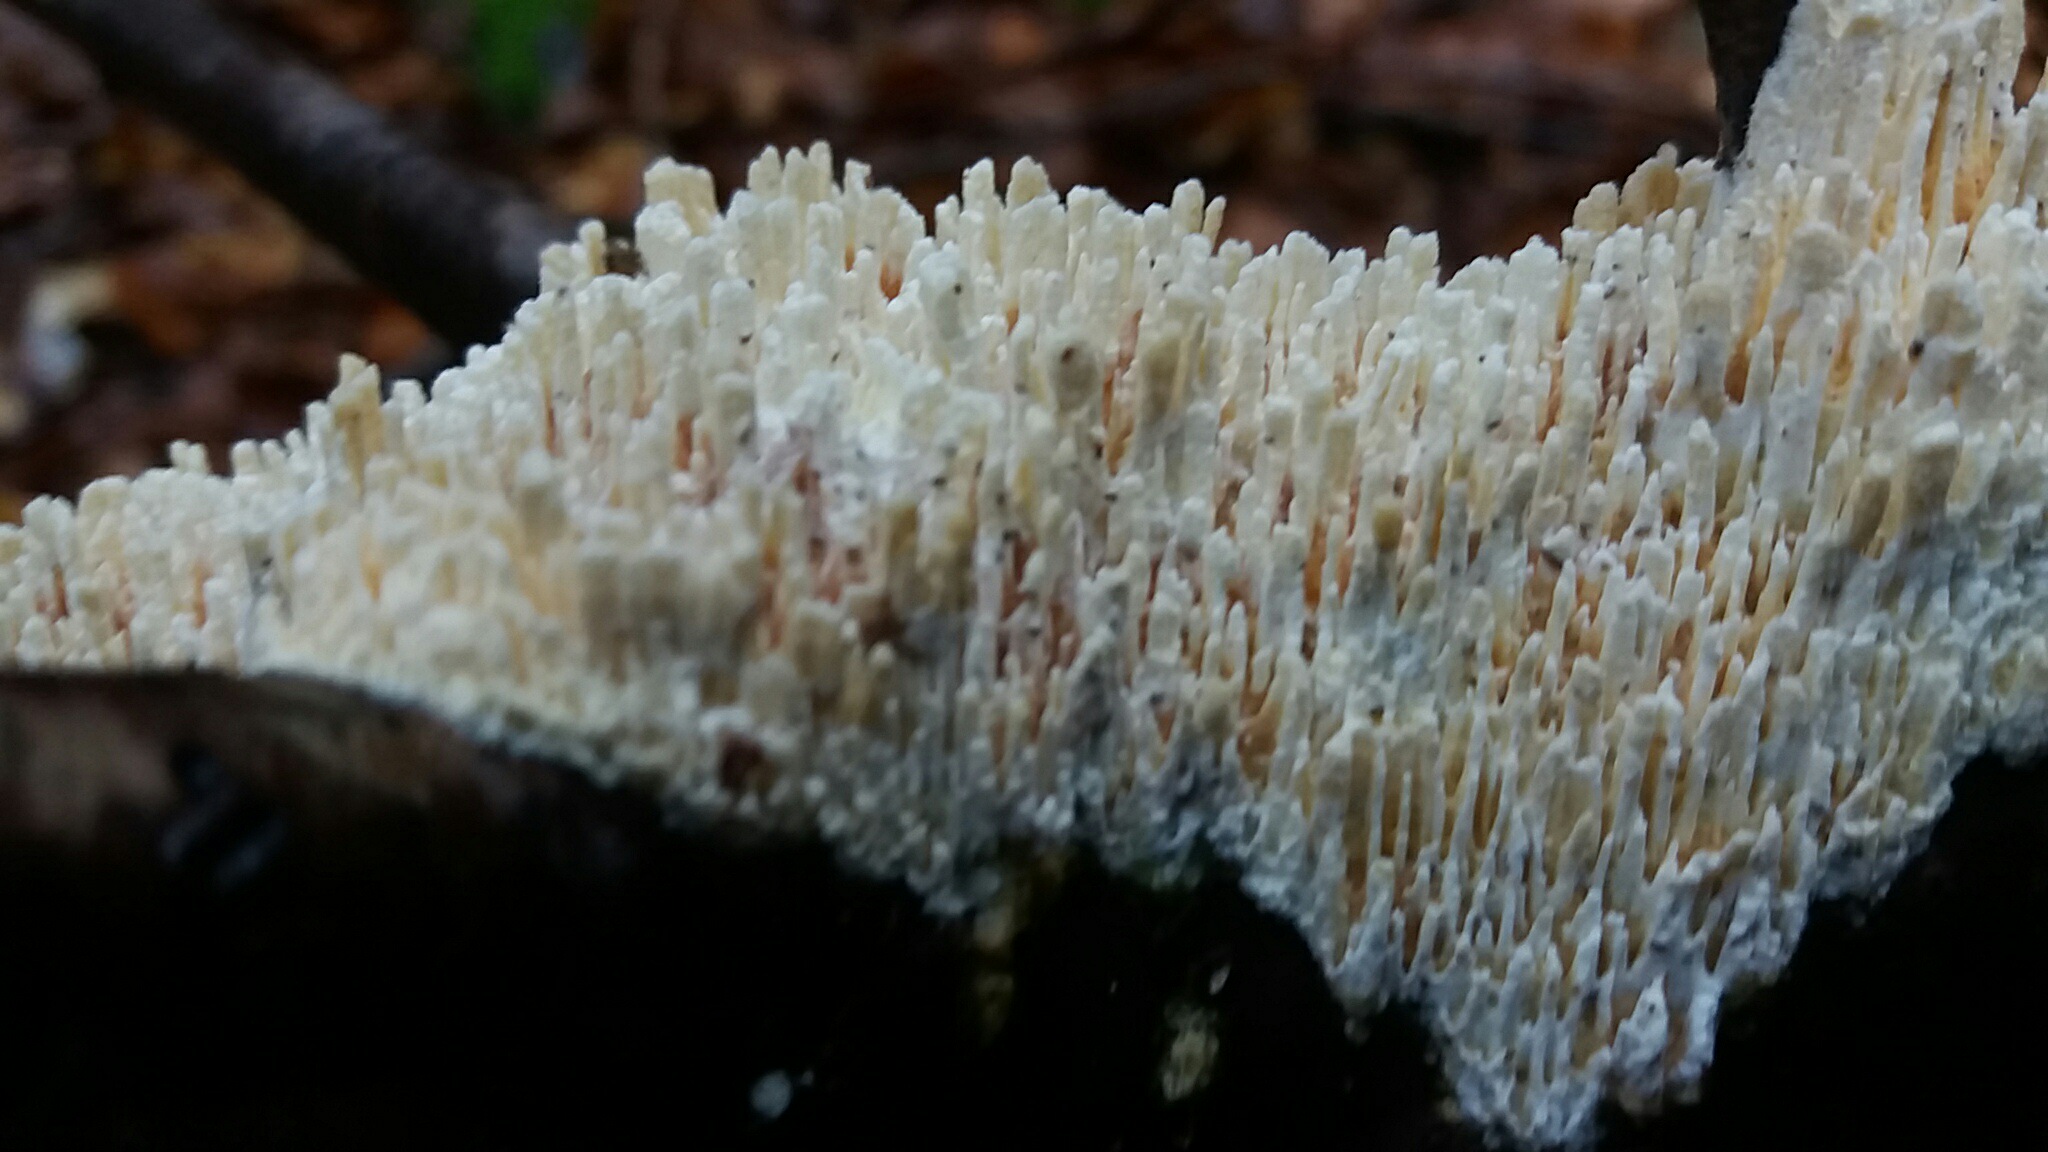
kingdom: Fungi
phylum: Basidiomycota
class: Agaricomycetes
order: Hymenochaetales
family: Schizoporaceae
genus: Xylodon
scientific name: Xylodon radula
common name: grovtandet kalkskind
